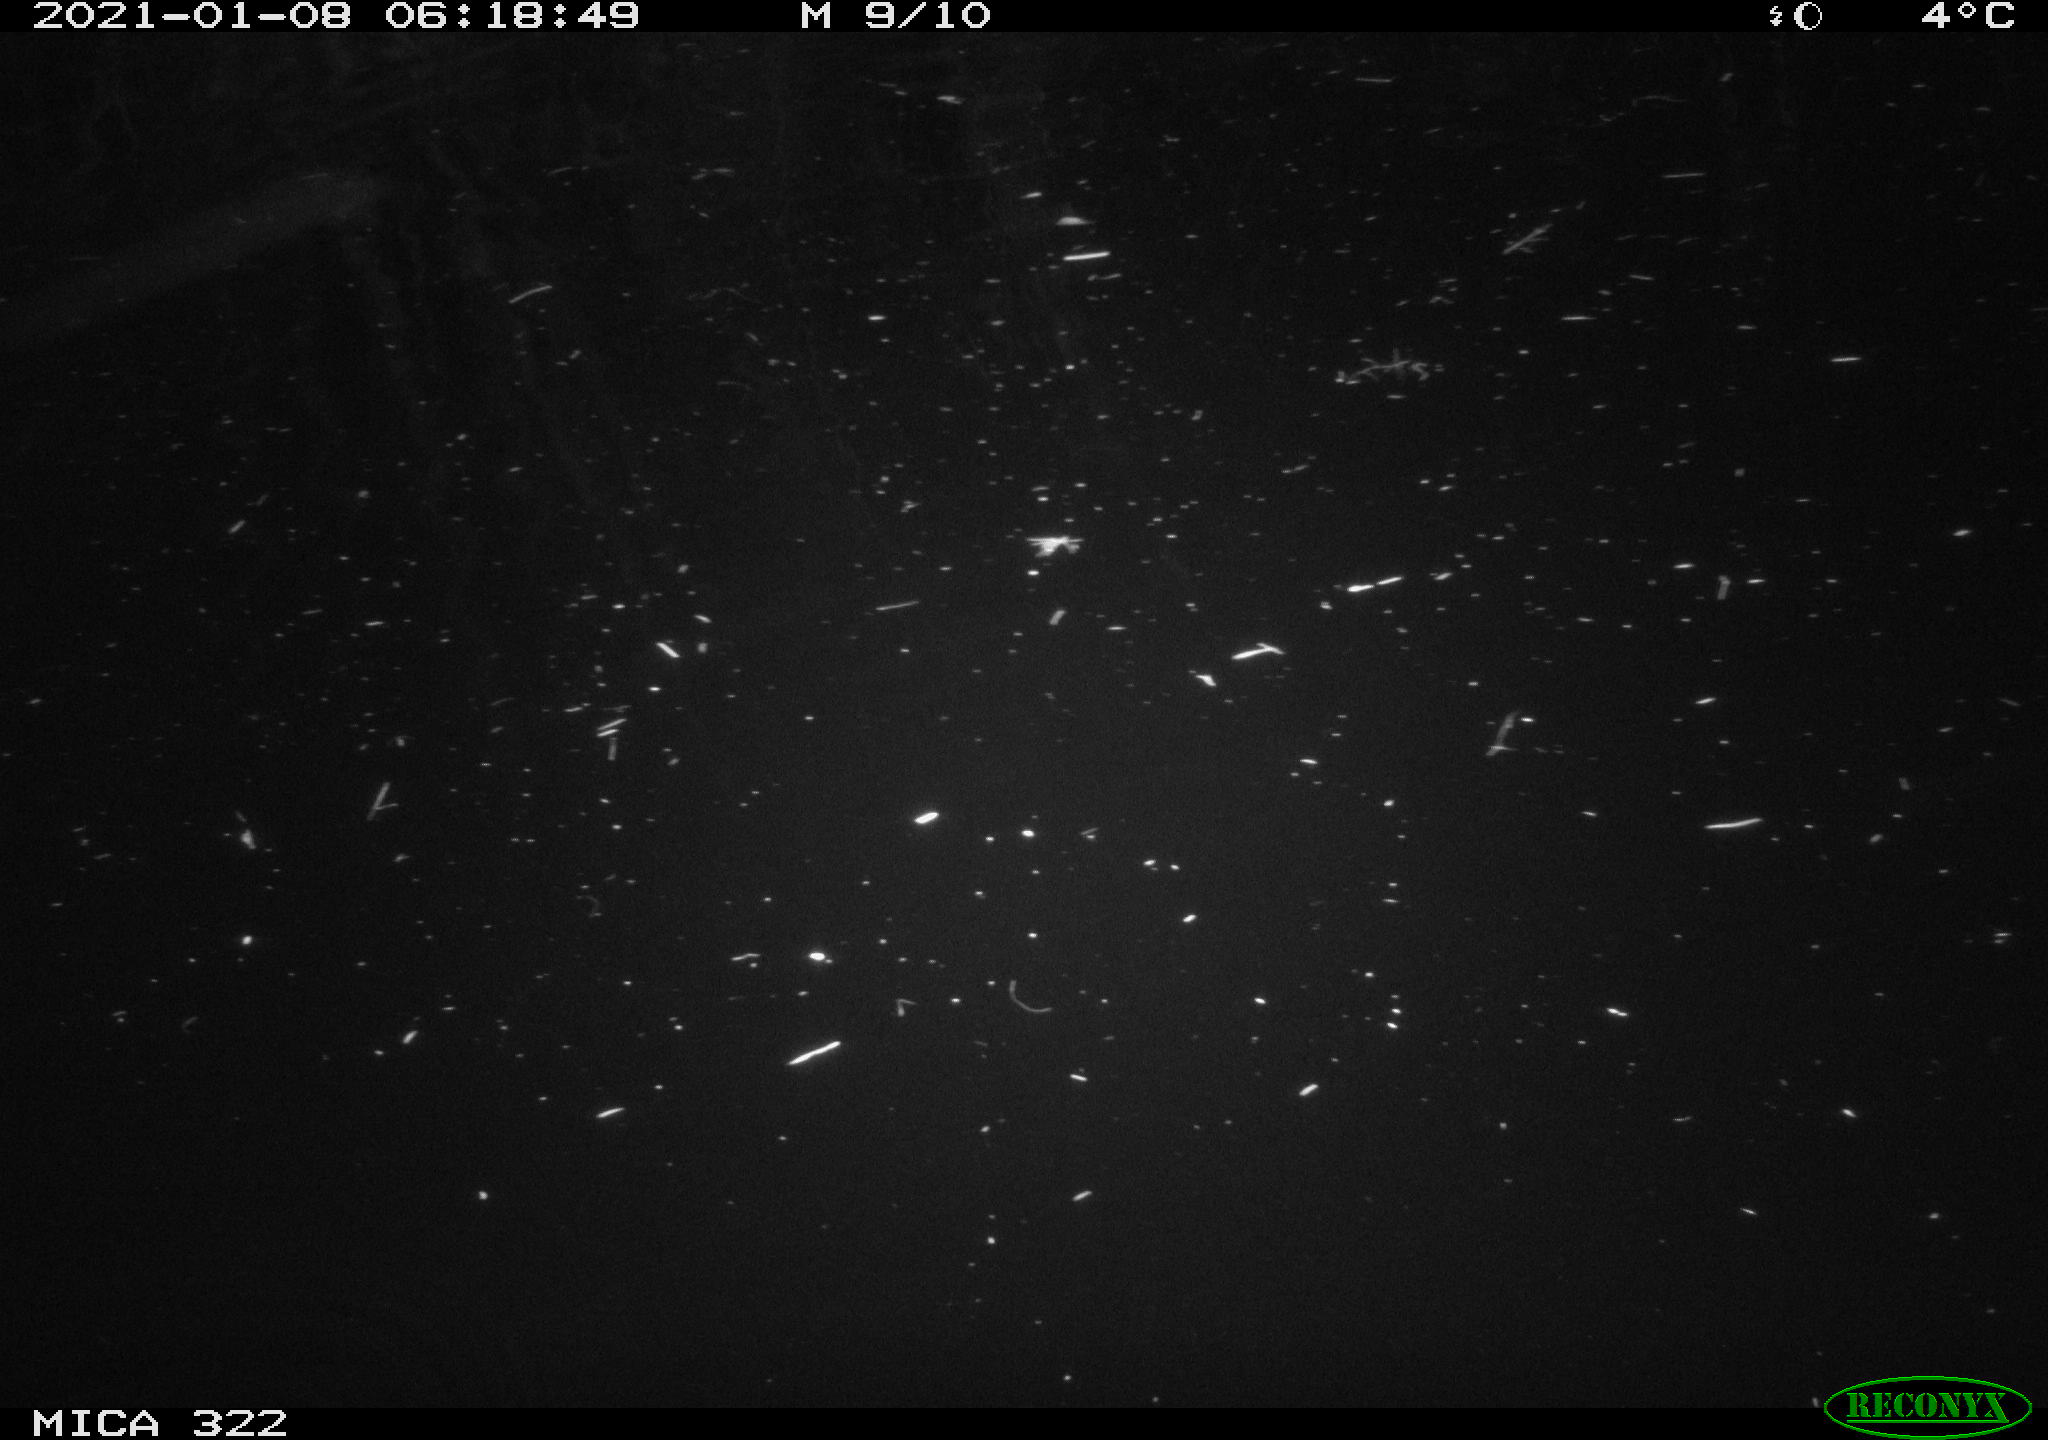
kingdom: Animalia
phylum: Chordata
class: Mammalia
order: Rodentia
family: Muridae
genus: Rattus
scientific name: Rattus norvegicus
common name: Brown rat
